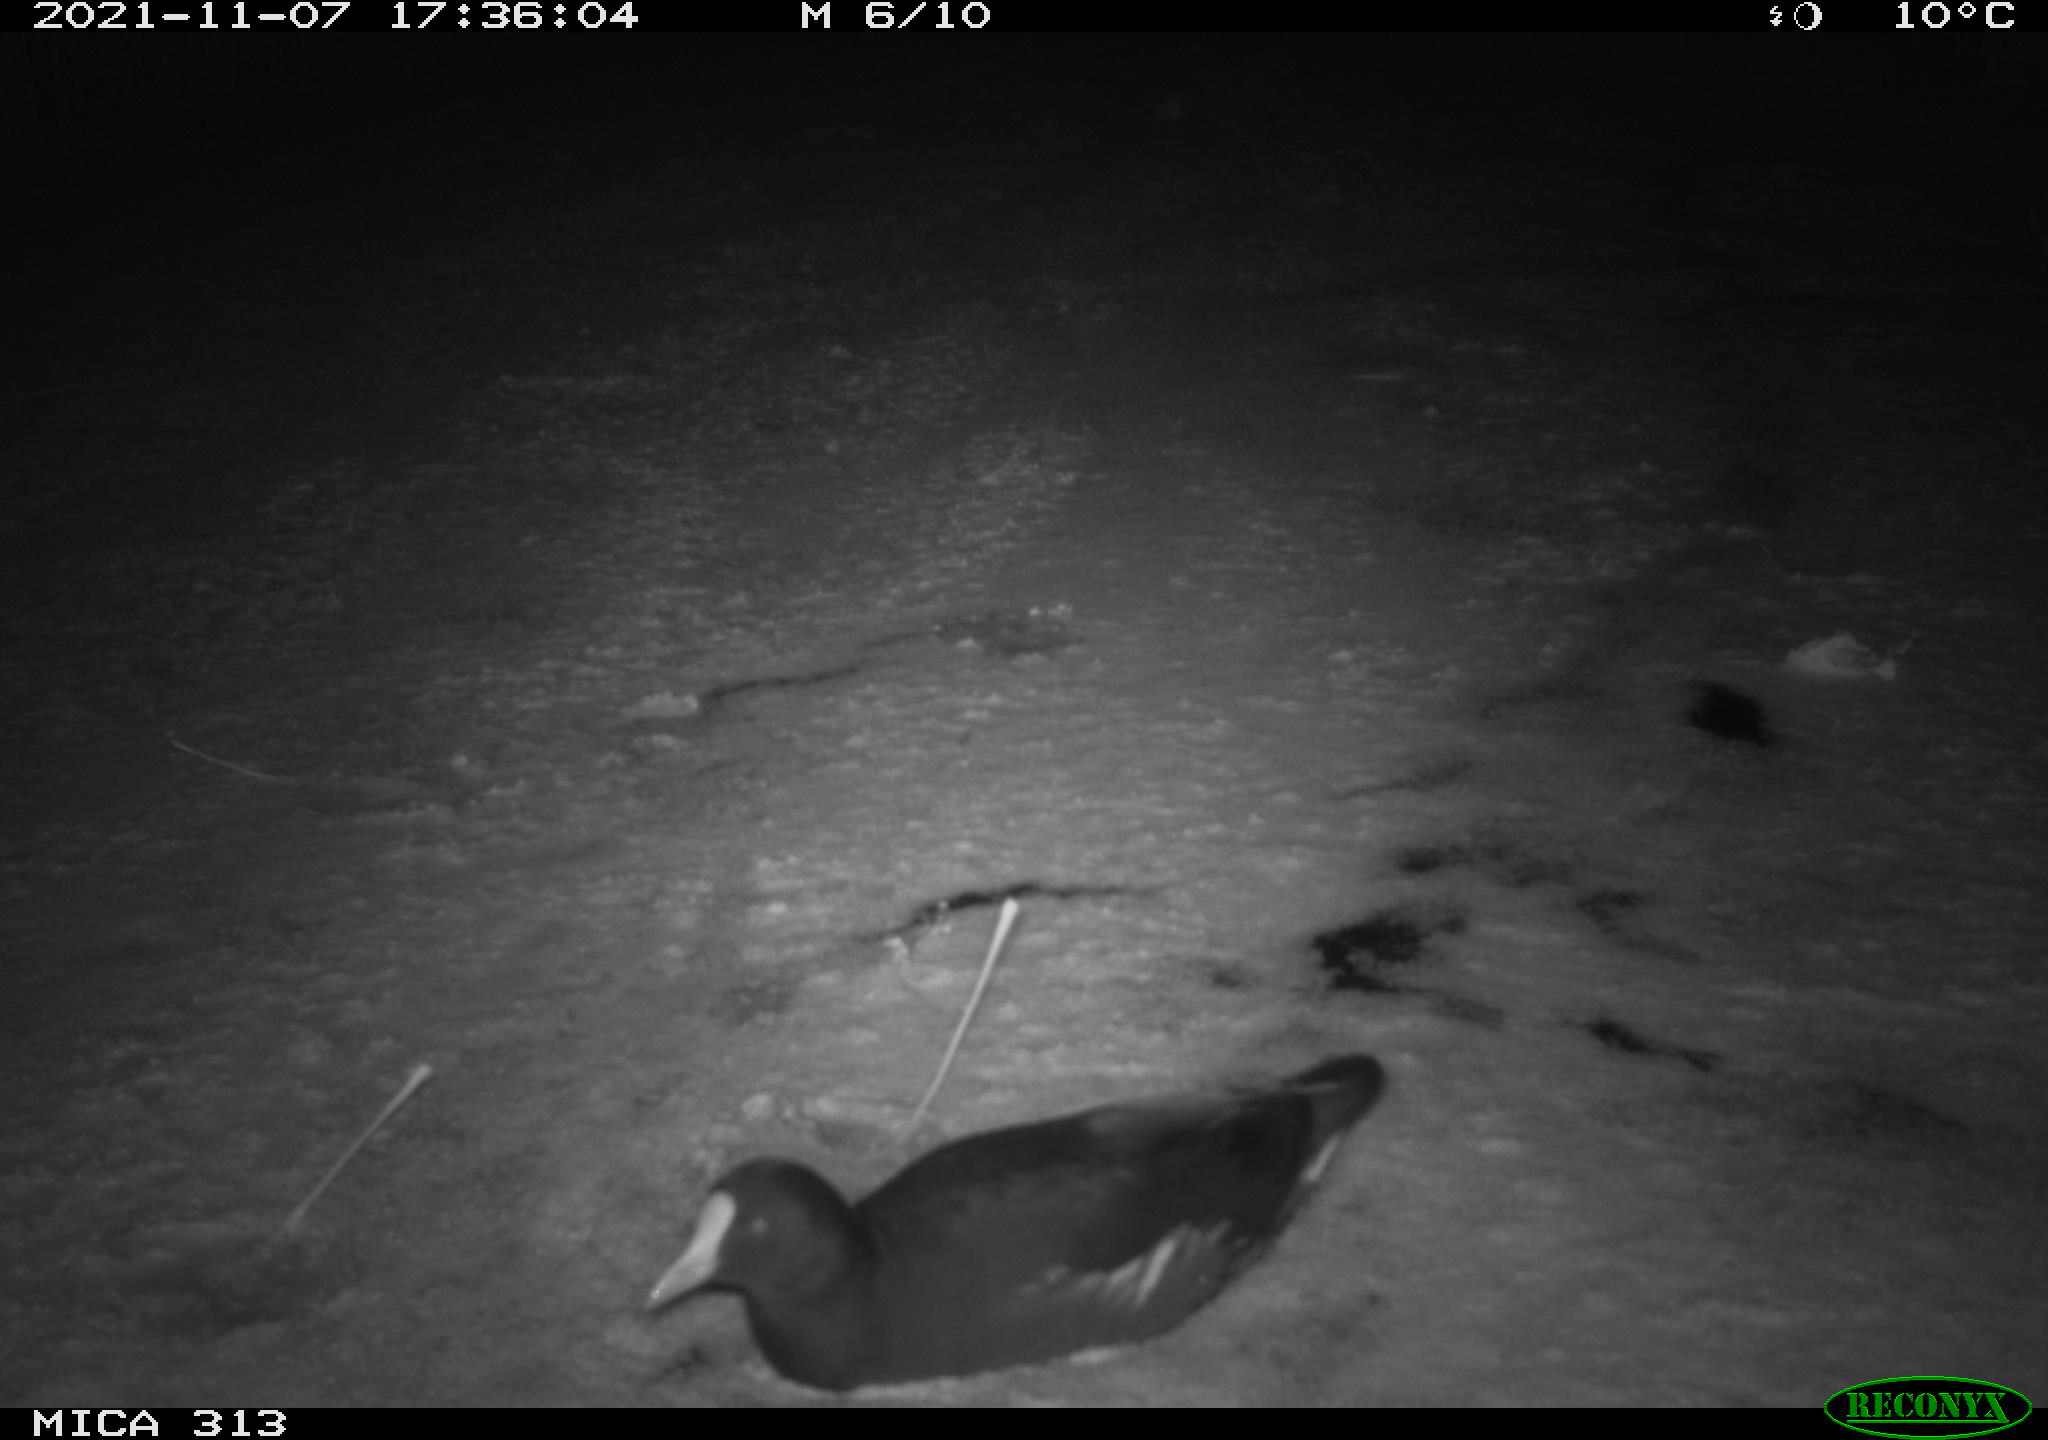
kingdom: Animalia
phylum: Chordata
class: Aves
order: Gruiformes
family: Rallidae
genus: Gallinula
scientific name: Gallinula chloropus
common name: Common moorhen
